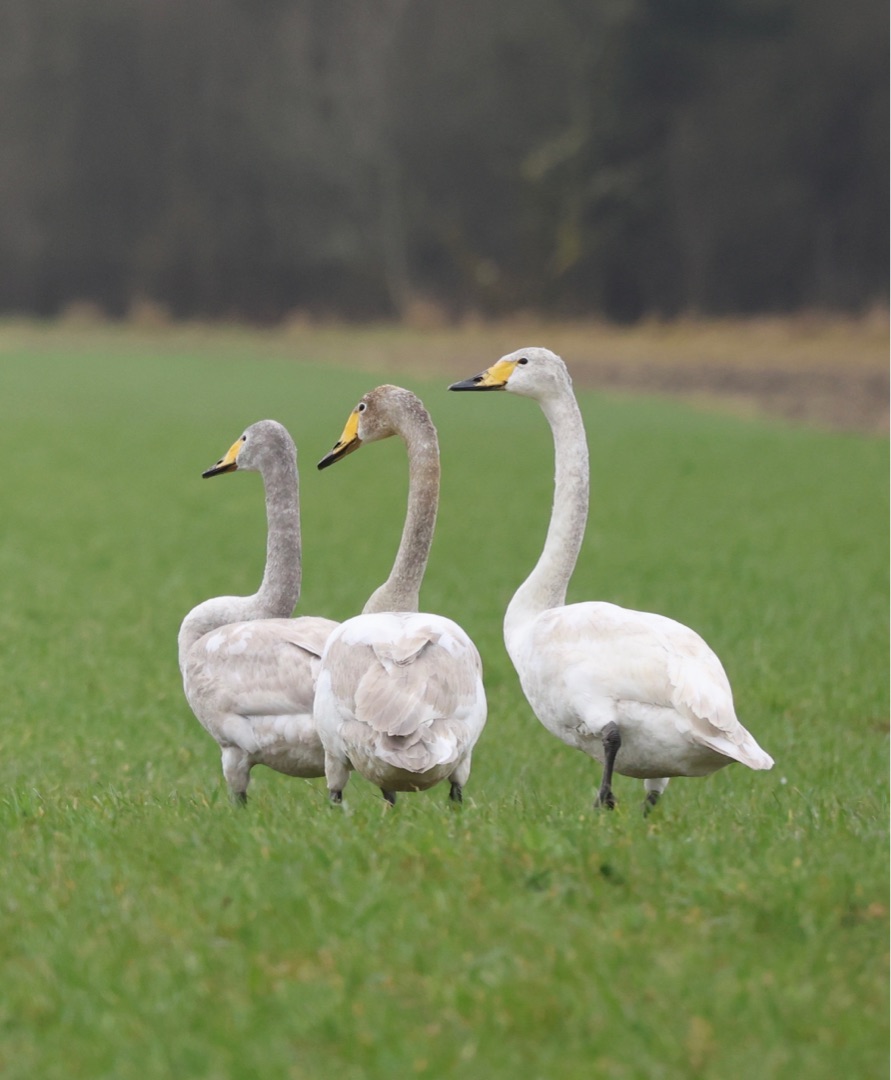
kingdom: Animalia
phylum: Chordata
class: Aves
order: Anseriformes
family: Anatidae
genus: Cygnus
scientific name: Cygnus cygnus
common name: Sangsvane
